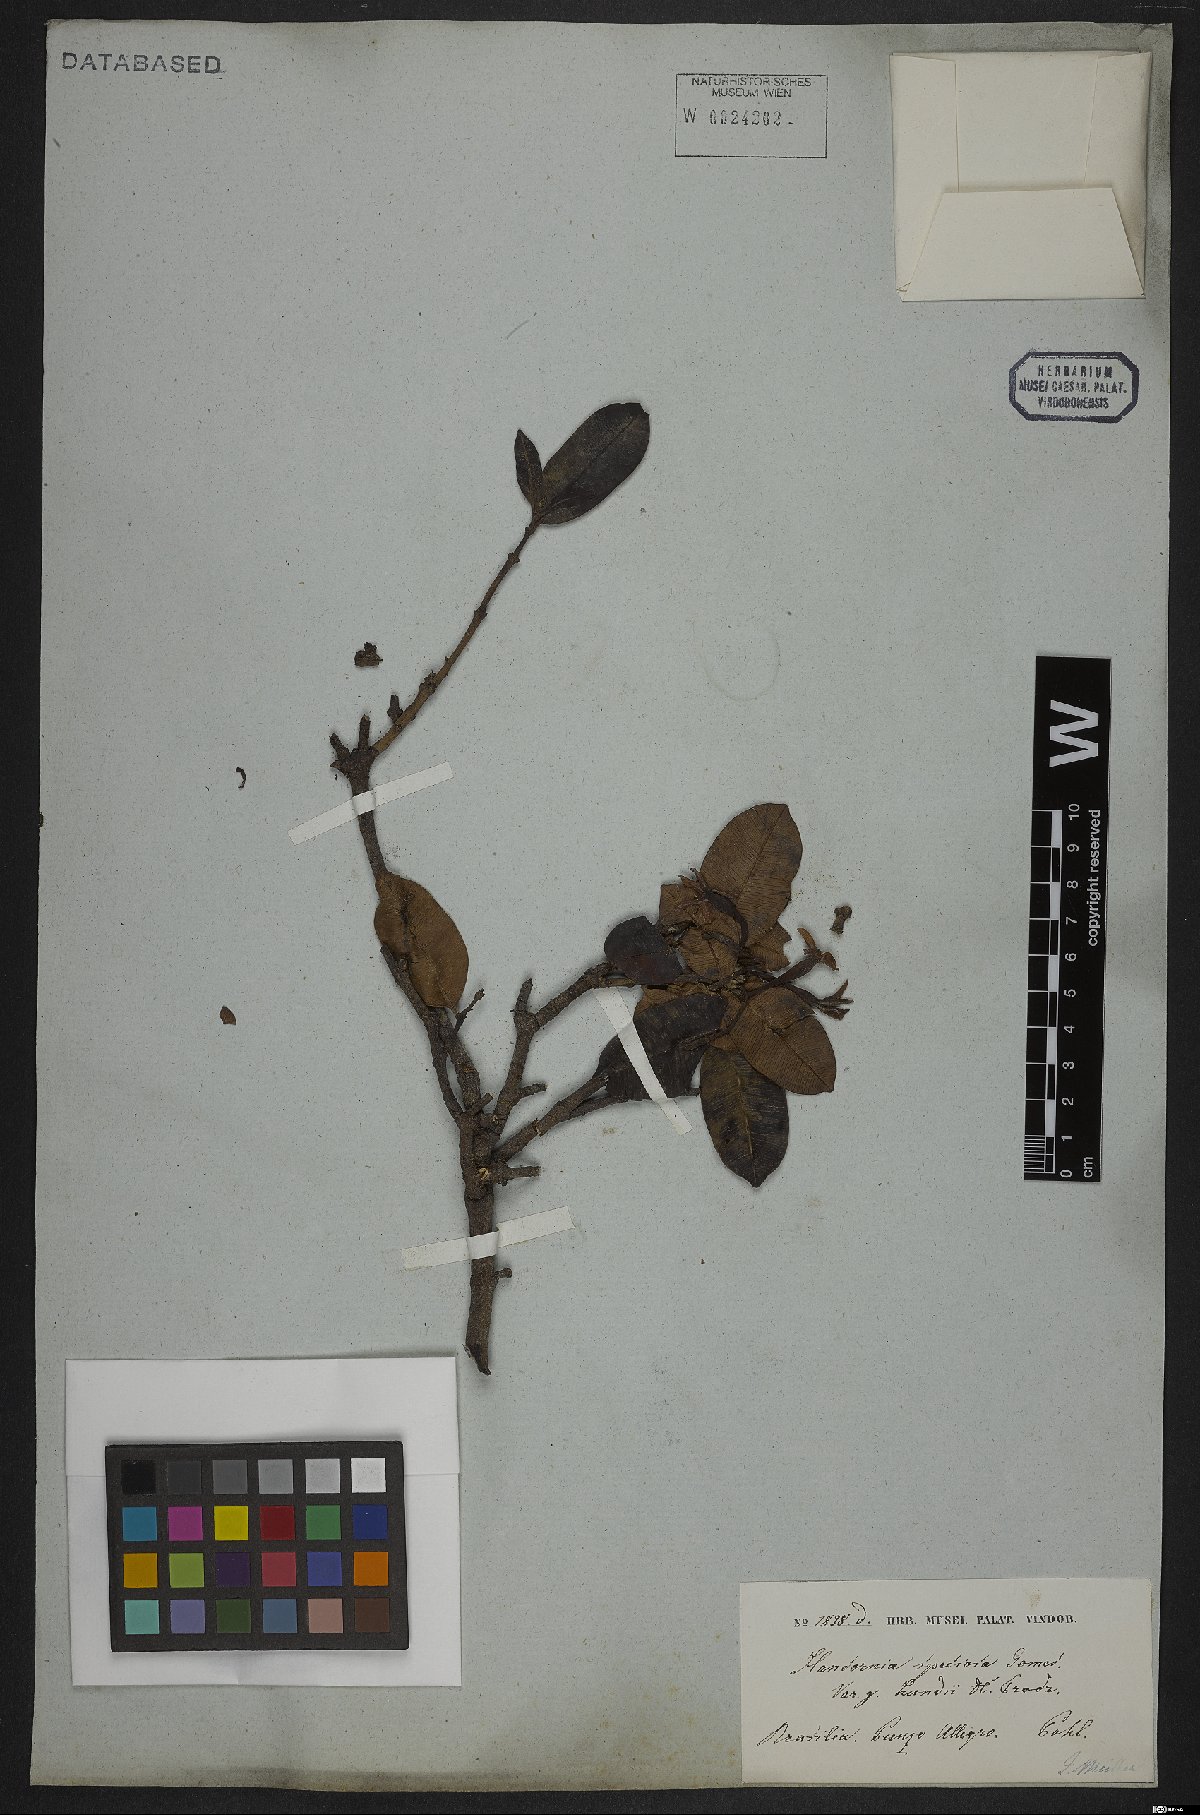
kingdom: Plantae
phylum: Tracheophyta
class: Magnoliopsida
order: Gentianales
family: Apocynaceae
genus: Hancornia
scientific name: Hancornia speciosa
